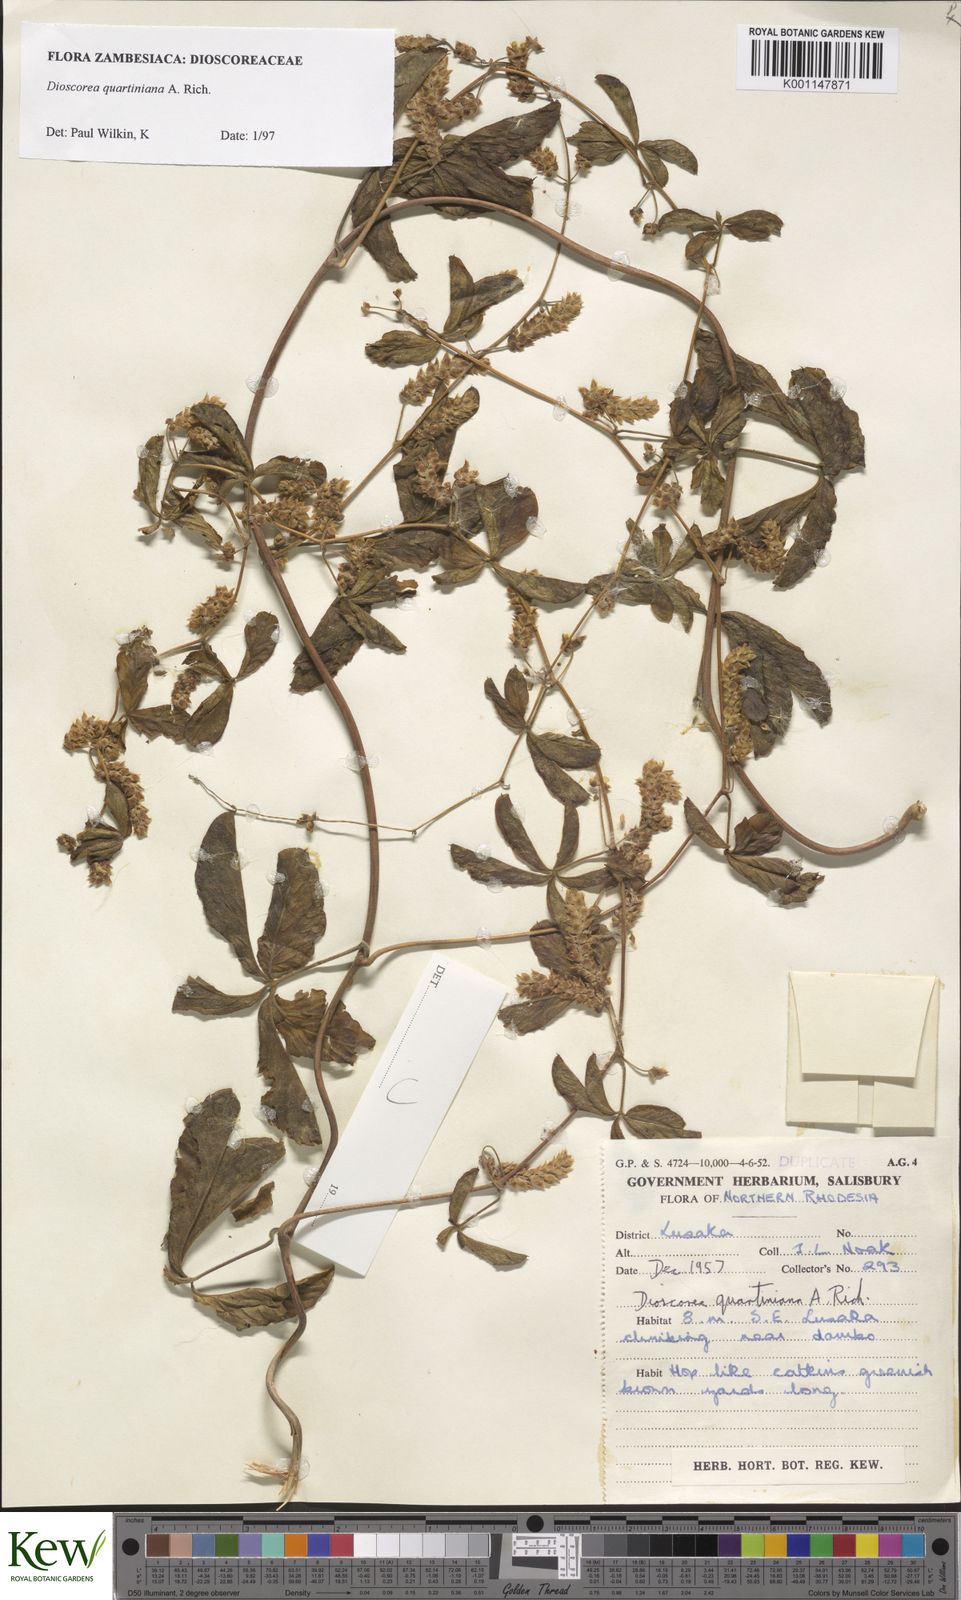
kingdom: Plantae
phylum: Tracheophyta
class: Liliopsida
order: Dioscoreales
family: Dioscoreaceae
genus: Dioscorea
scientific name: Dioscorea quartiniana
